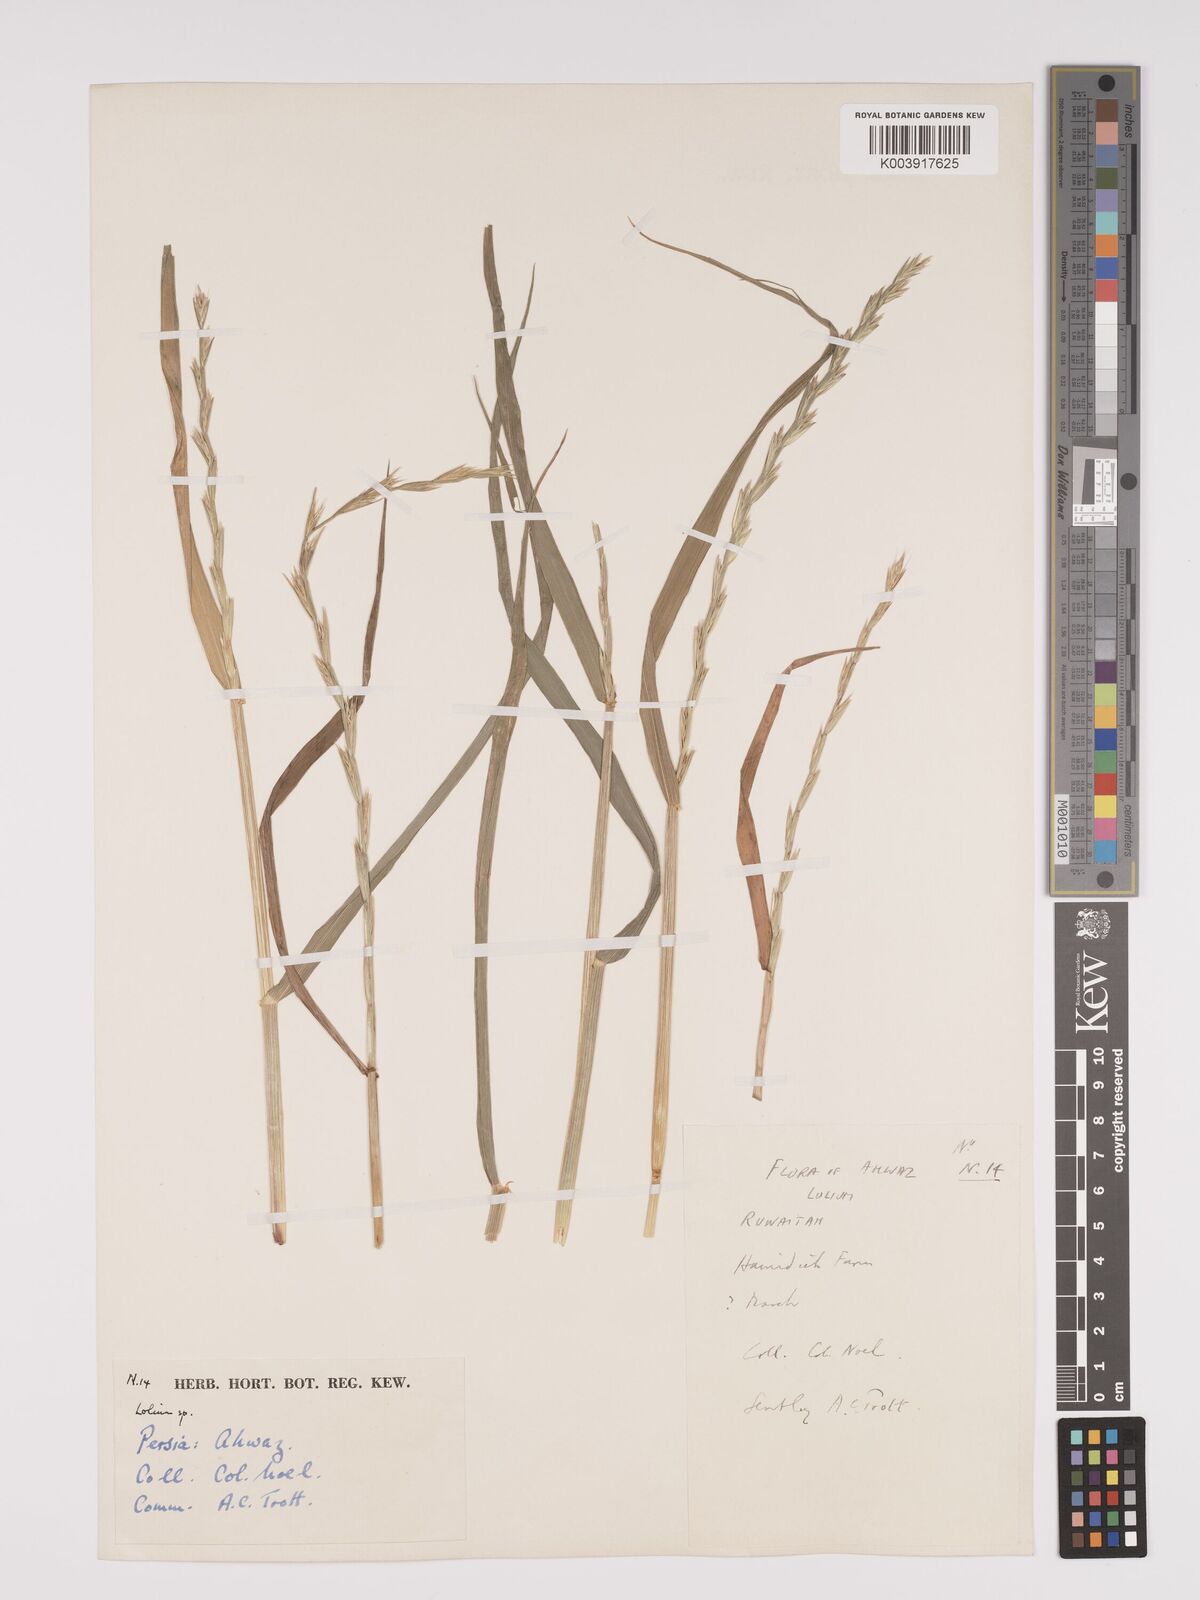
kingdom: Plantae
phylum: Tracheophyta
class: Liliopsida
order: Poales
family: Poaceae
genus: Lolium
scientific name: Lolium
